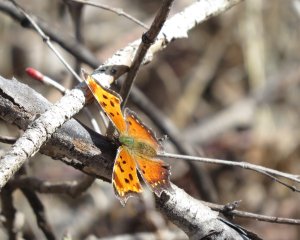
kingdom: Animalia
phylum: Arthropoda
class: Insecta
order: Lepidoptera
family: Nymphalidae
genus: Polygonia
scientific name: Polygonia progne
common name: Gray Comma
